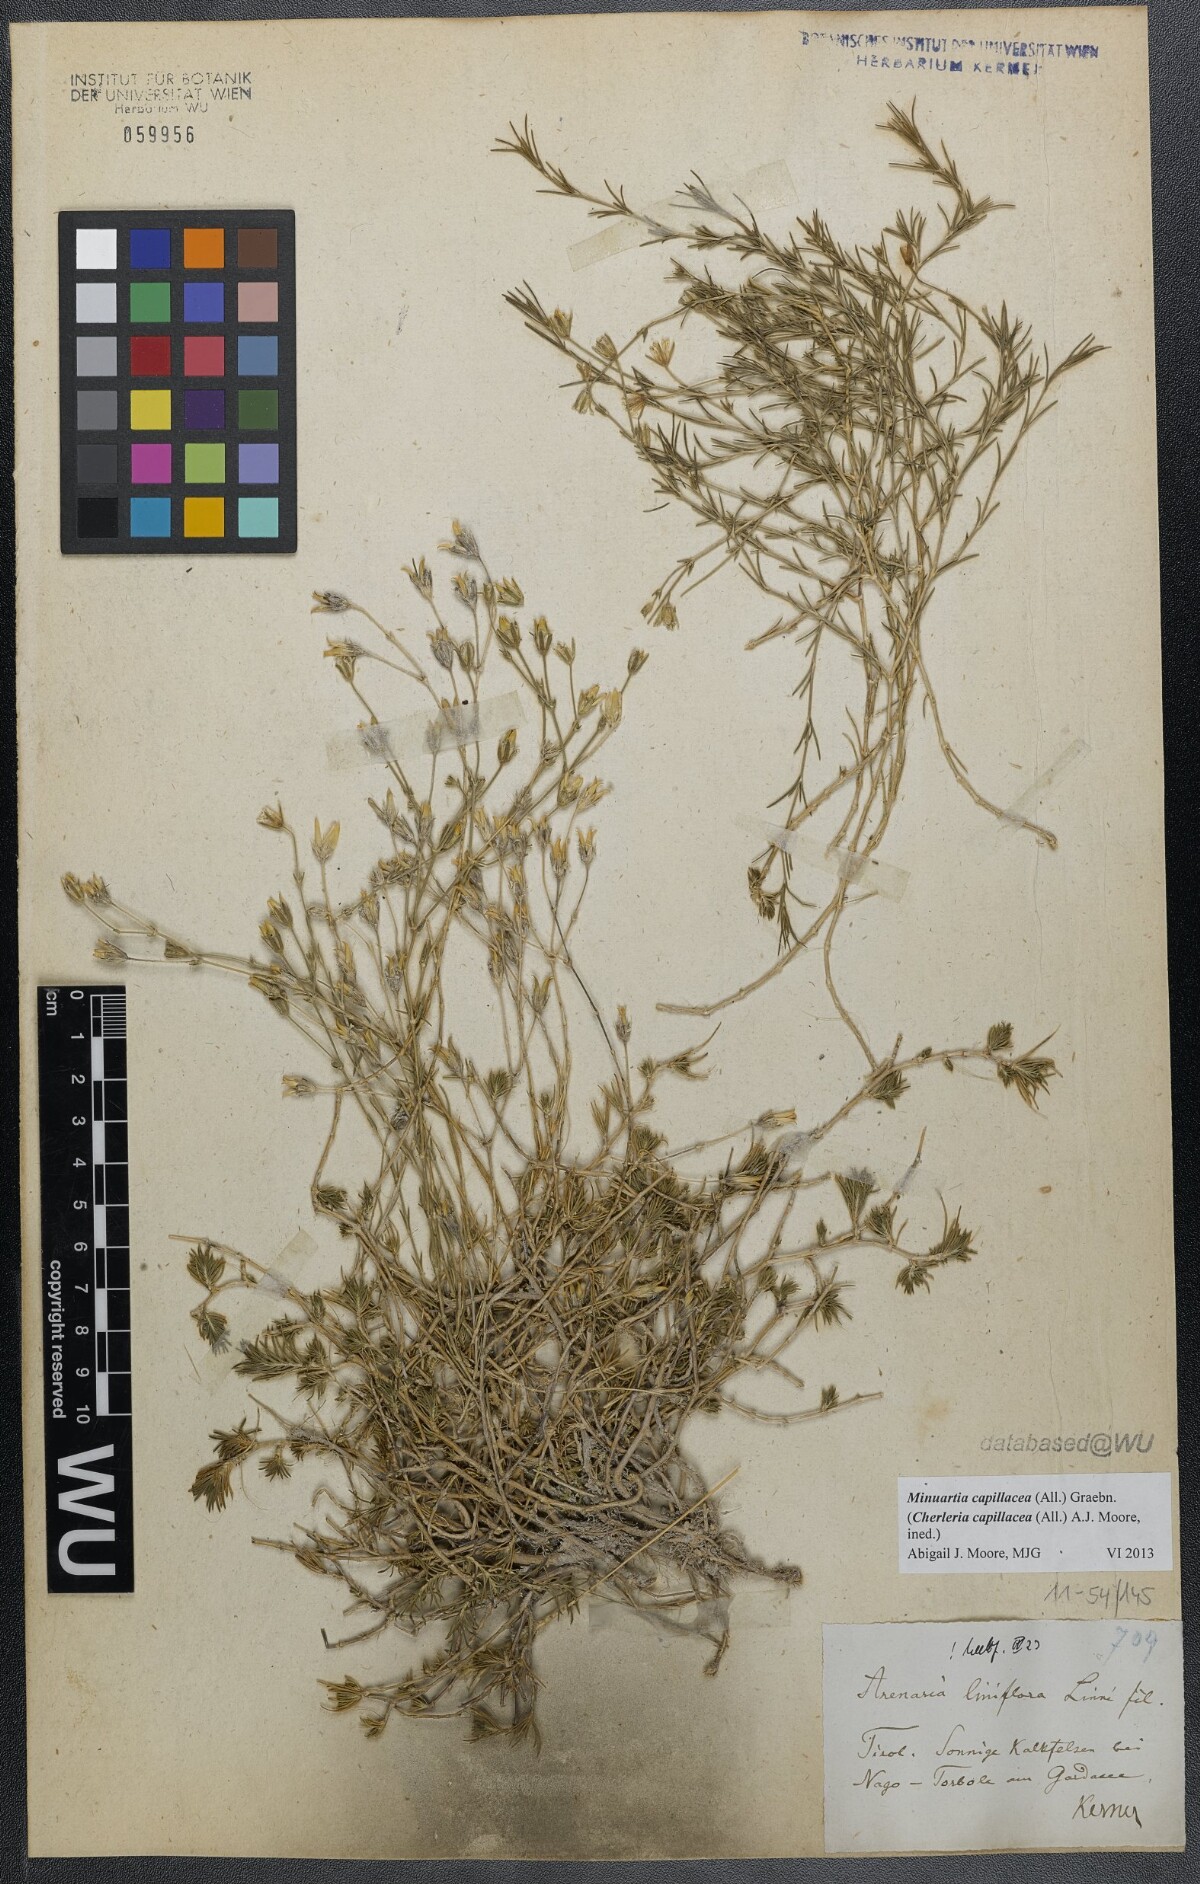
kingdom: Plantae
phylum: Tracheophyta
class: Magnoliopsida
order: Caryophyllales
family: Caryophyllaceae
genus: Cherleria
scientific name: Cherleria capillacea
